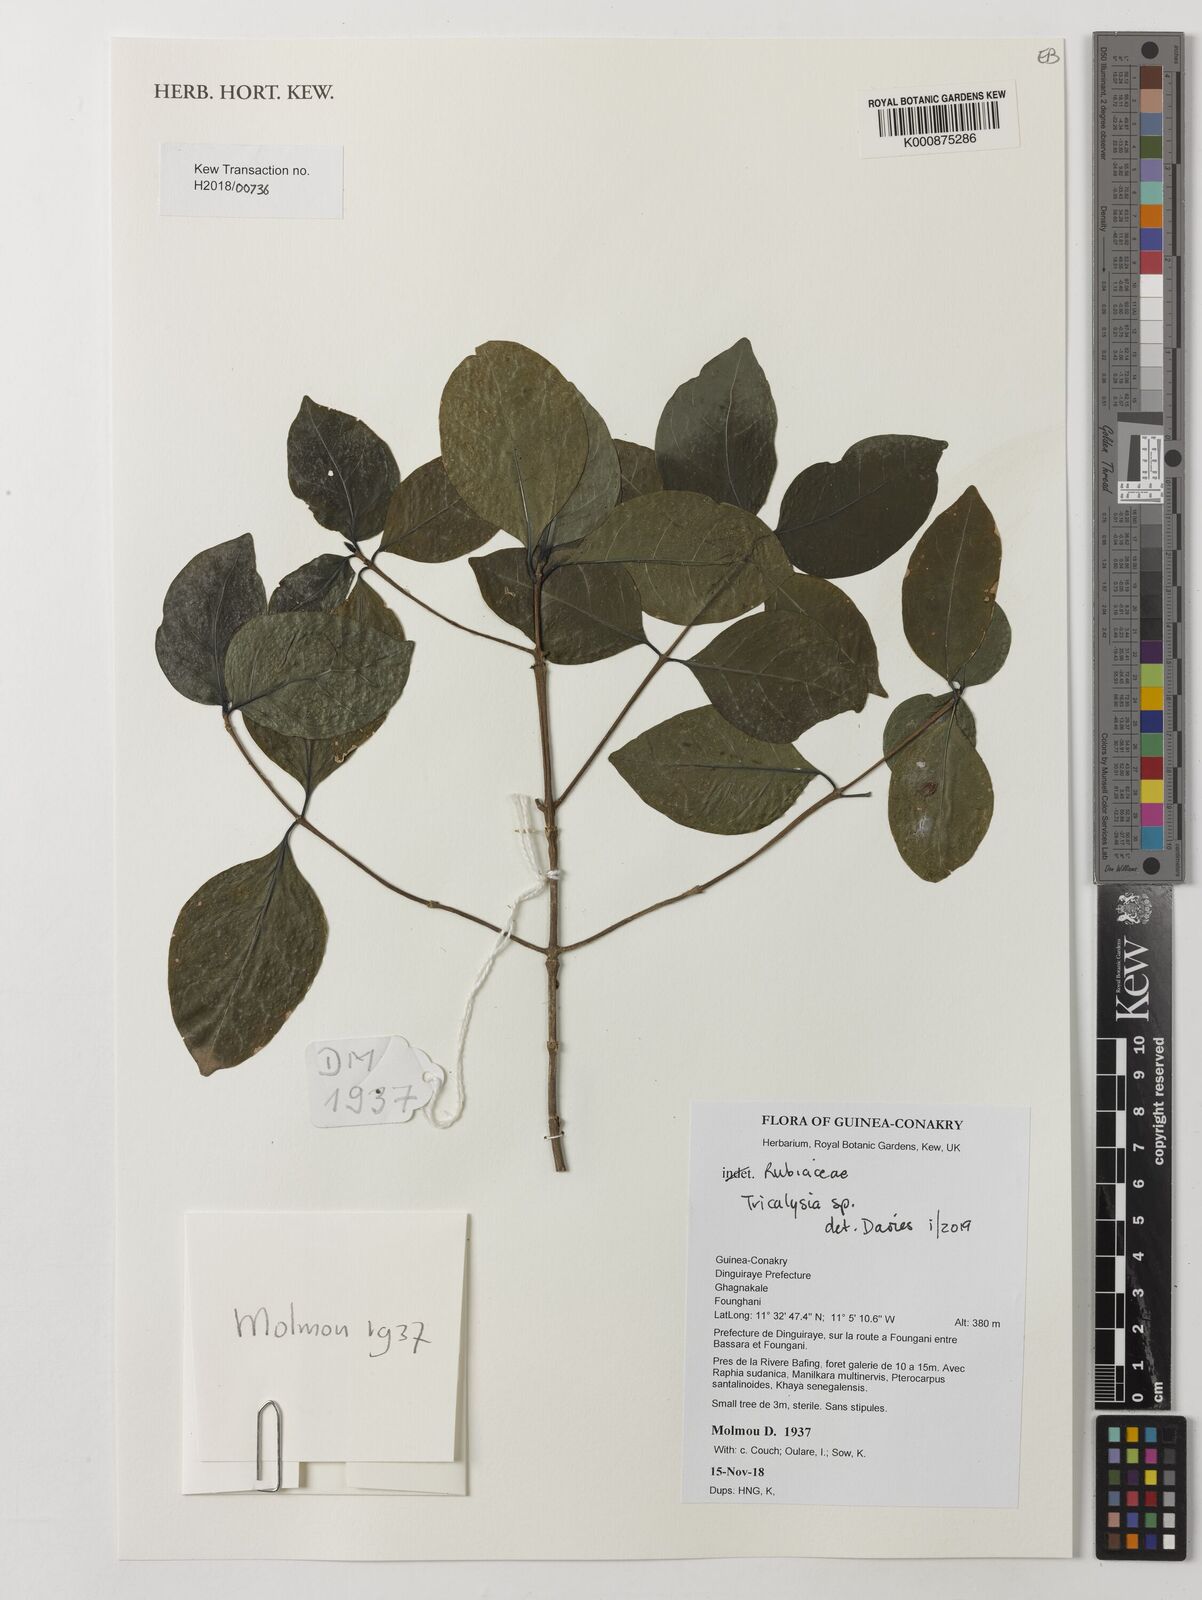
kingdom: Plantae
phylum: Tracheophyta
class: Magnoliopsida
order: Gentianales
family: Rubiaceae
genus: Tricalysia
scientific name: Tricalysia
